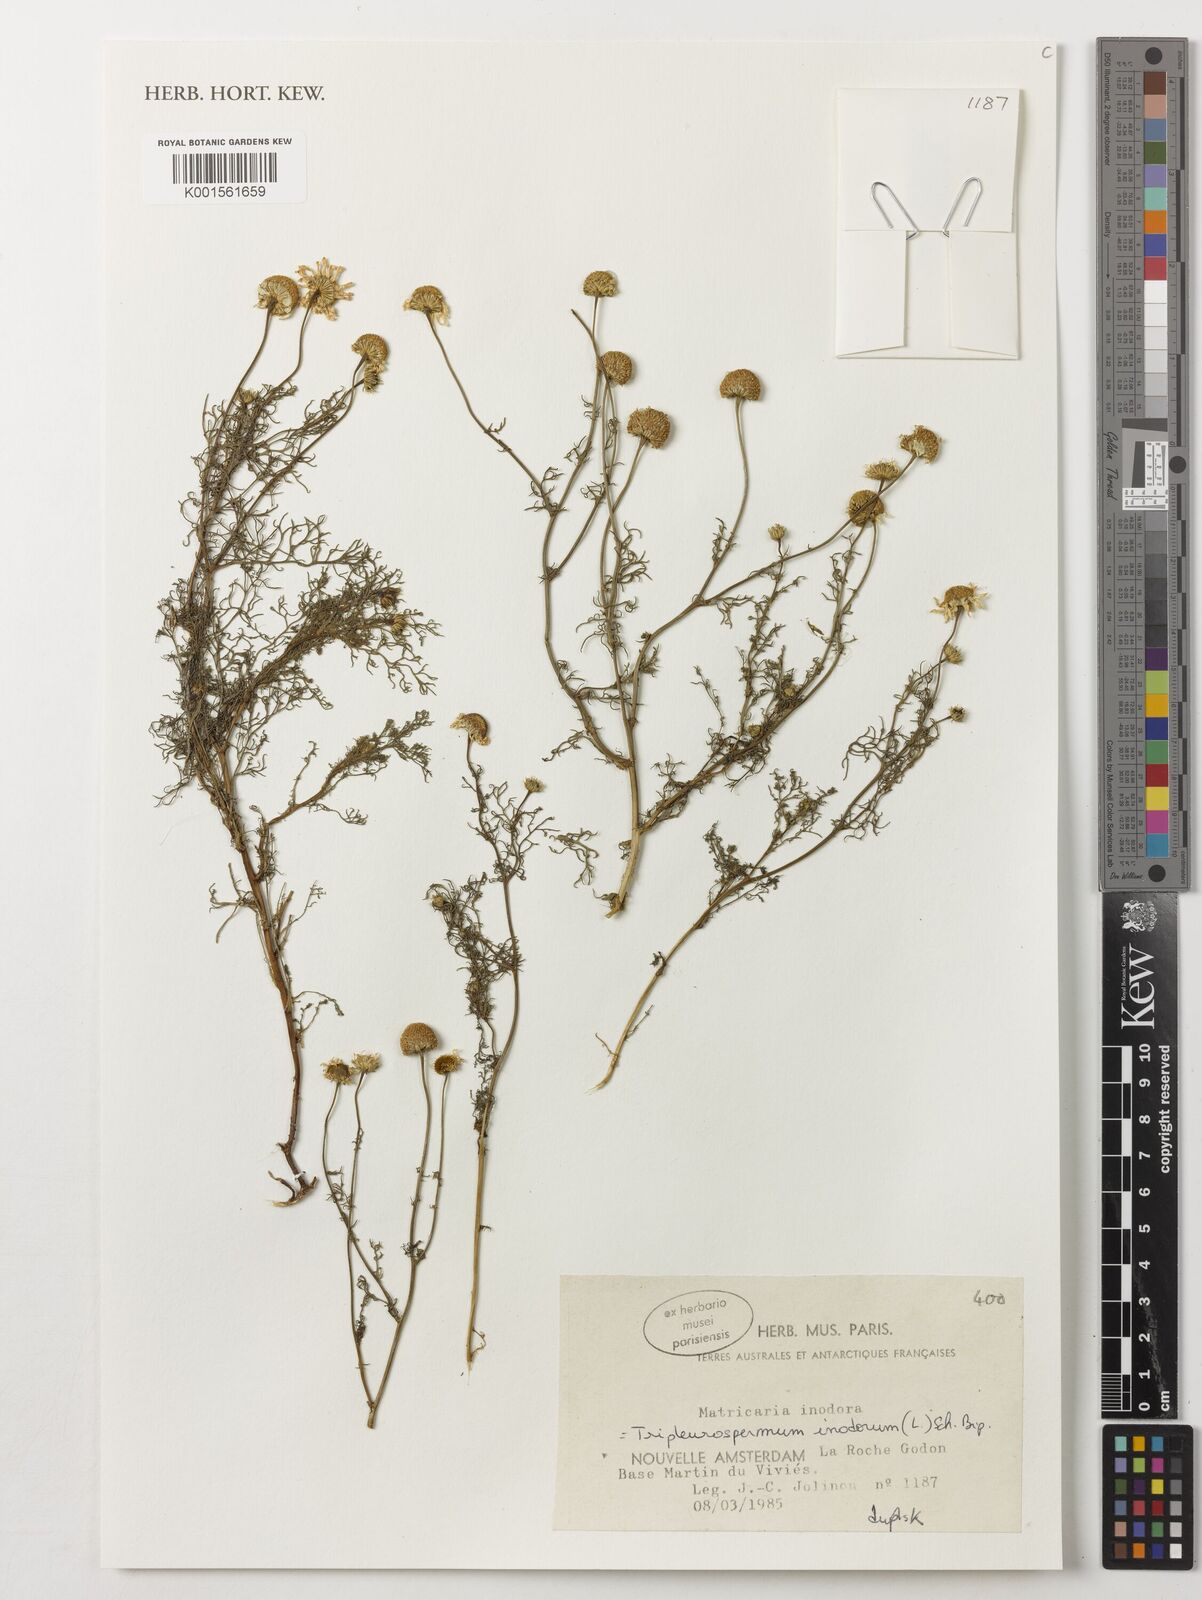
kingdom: Plantae
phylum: Tracheophyta
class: Magnoliopsida
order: Asterales
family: Asteraceae
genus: Tripleurospermum
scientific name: Tripleurospermum inodorum
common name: Scentless mayweed
